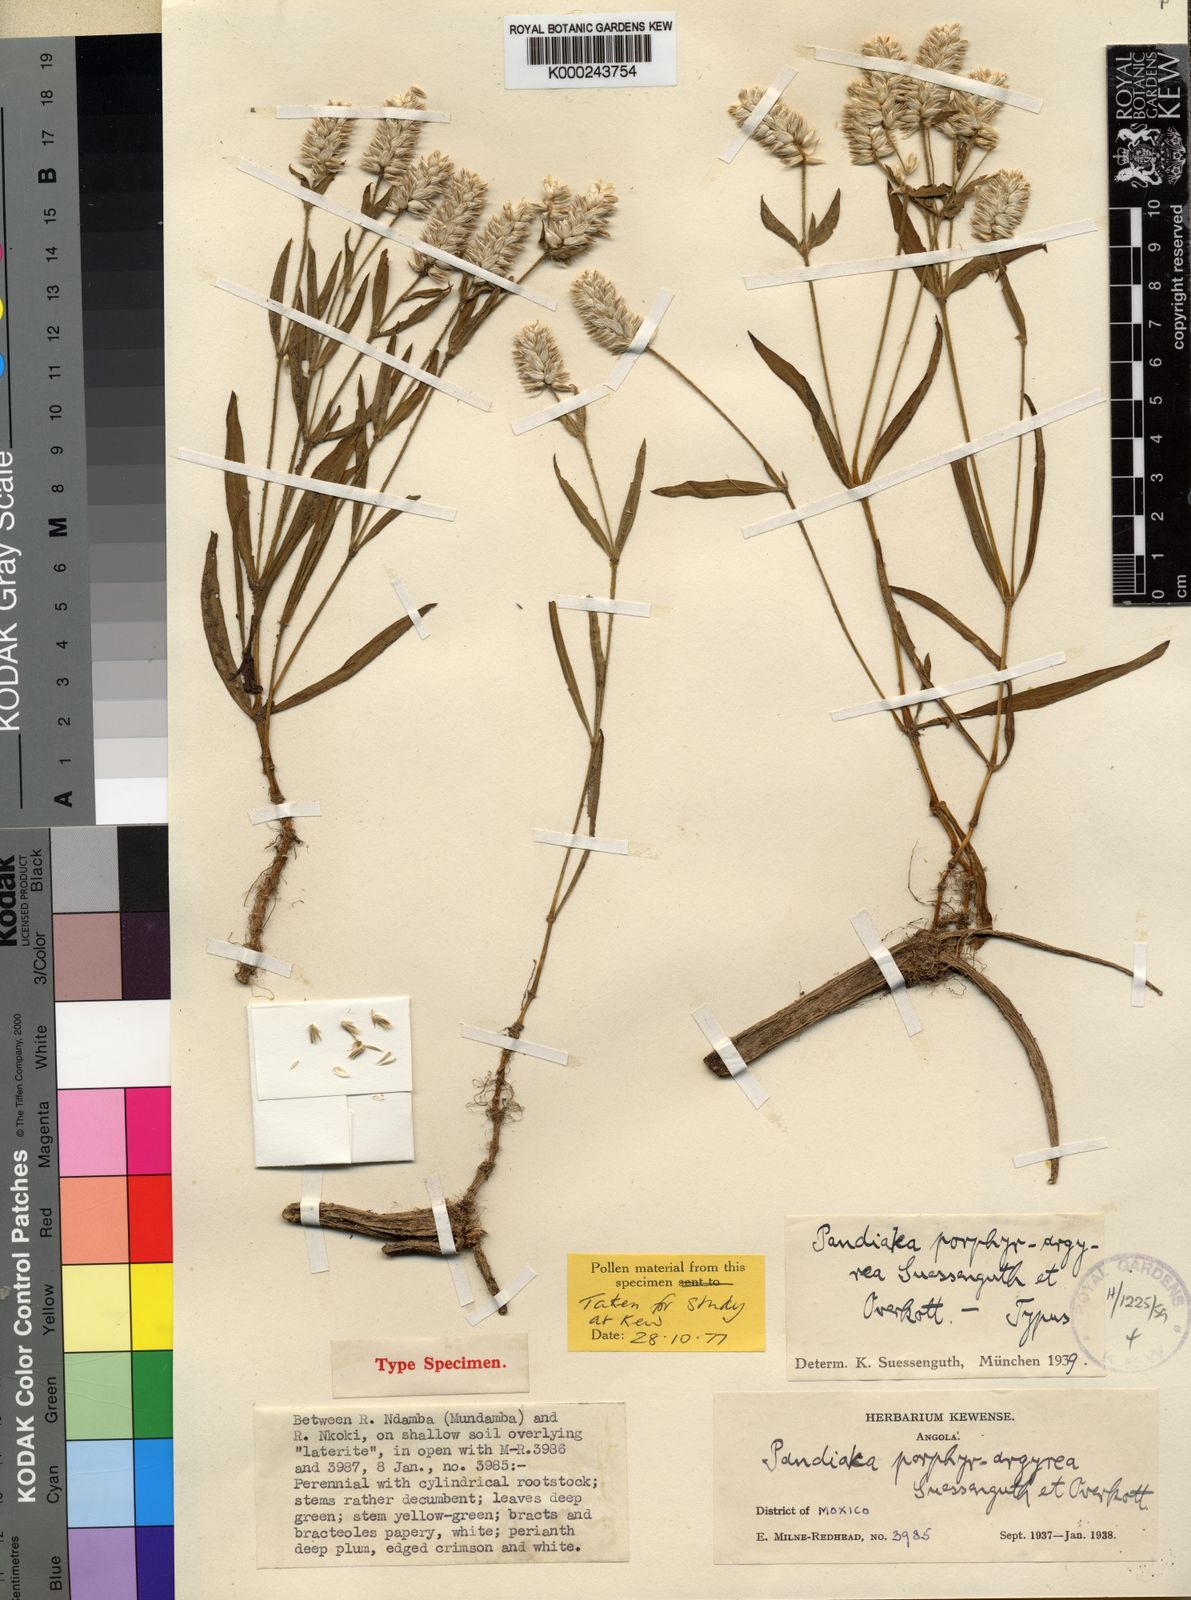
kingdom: Plantae
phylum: Tracheophyta
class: Magnoliopsida
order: Caryophyllales
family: Amaranthaceae
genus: Pandiaka
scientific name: Pandiaka
